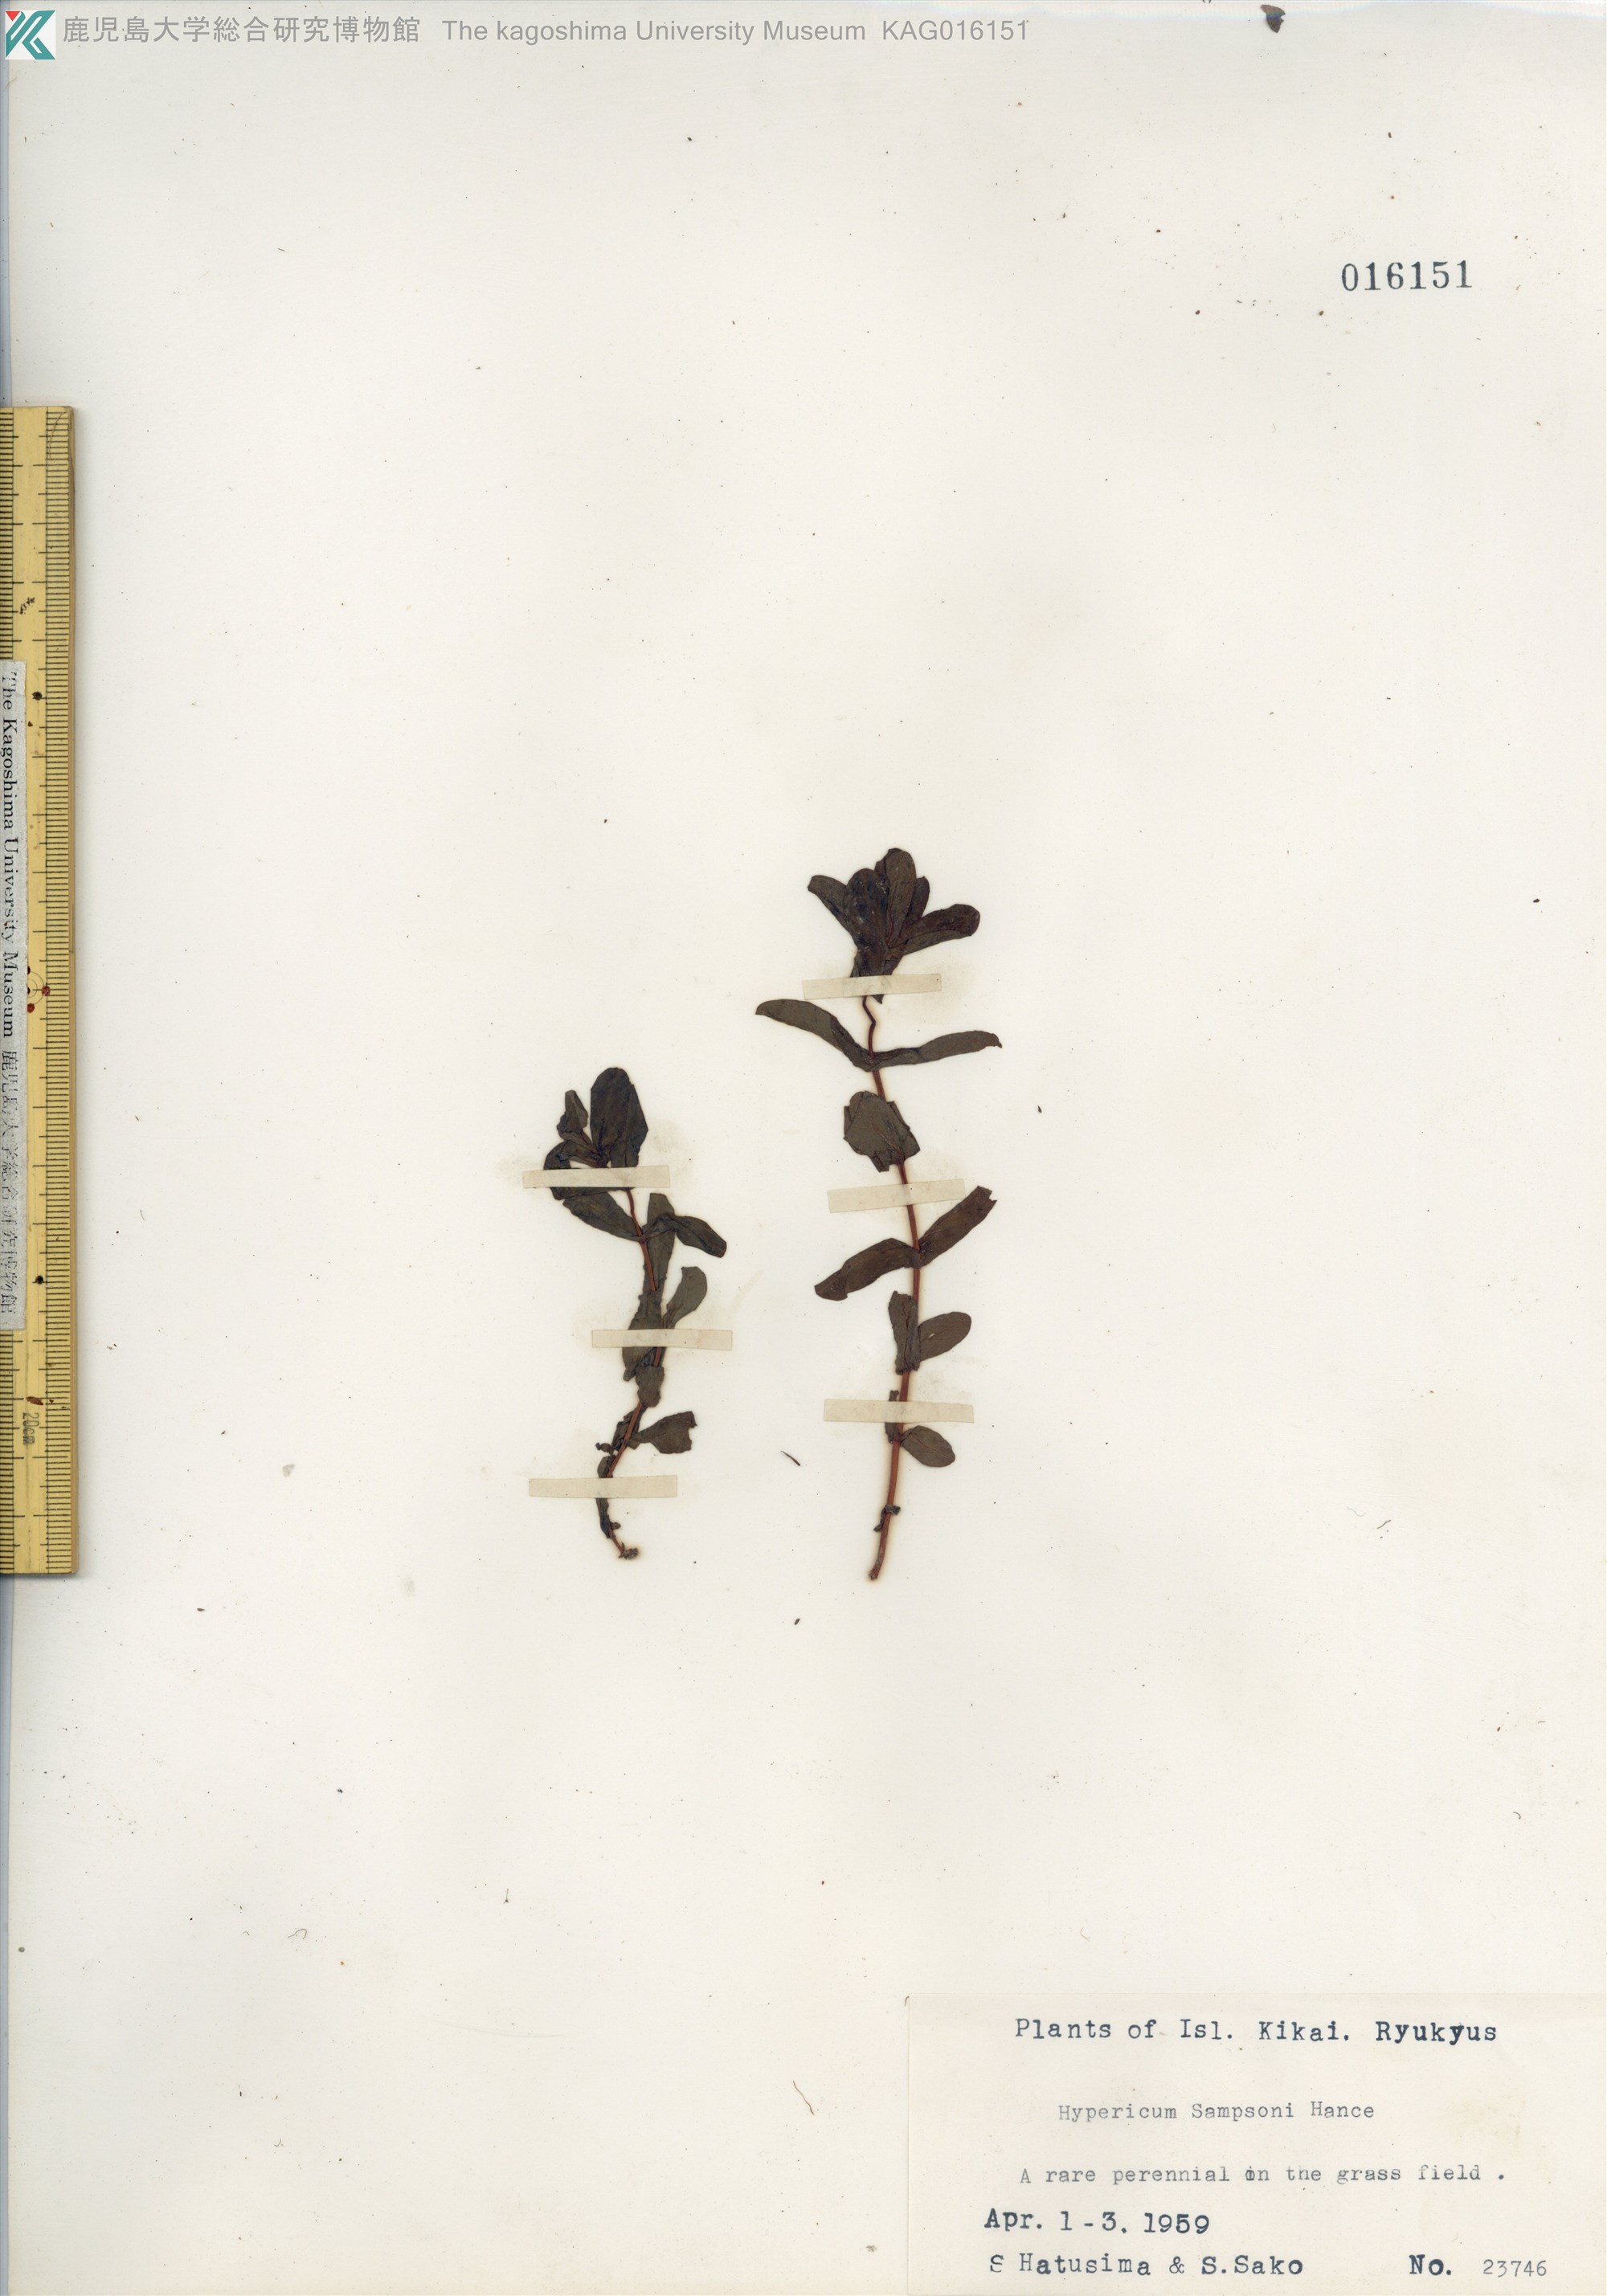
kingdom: Plantae
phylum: Tracheophyta
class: Magnoliopsida
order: Malpighiales
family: Hypericaceae
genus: Hypericum
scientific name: Hypericum sampsonii
